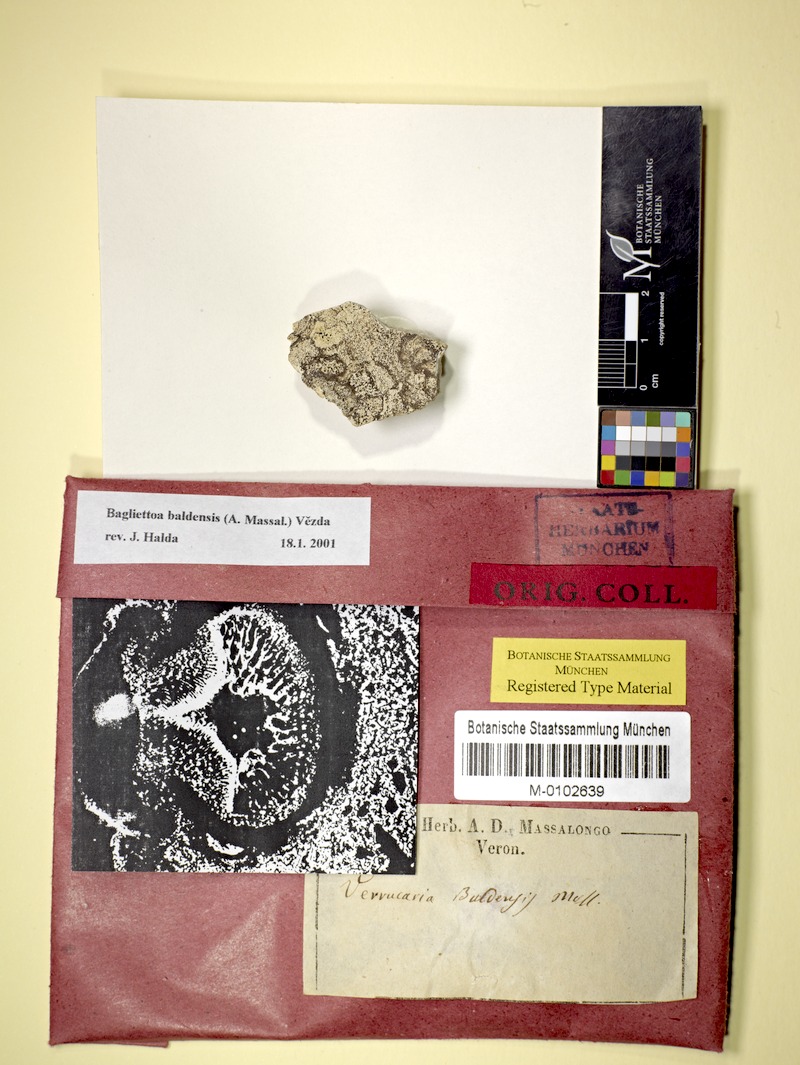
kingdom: Fungi
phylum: Ascomycota
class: Eurotiomycetes
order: Verrucariales
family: Verrucariaceae
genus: Bagliettoa
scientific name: Bagliettoa baldensis
